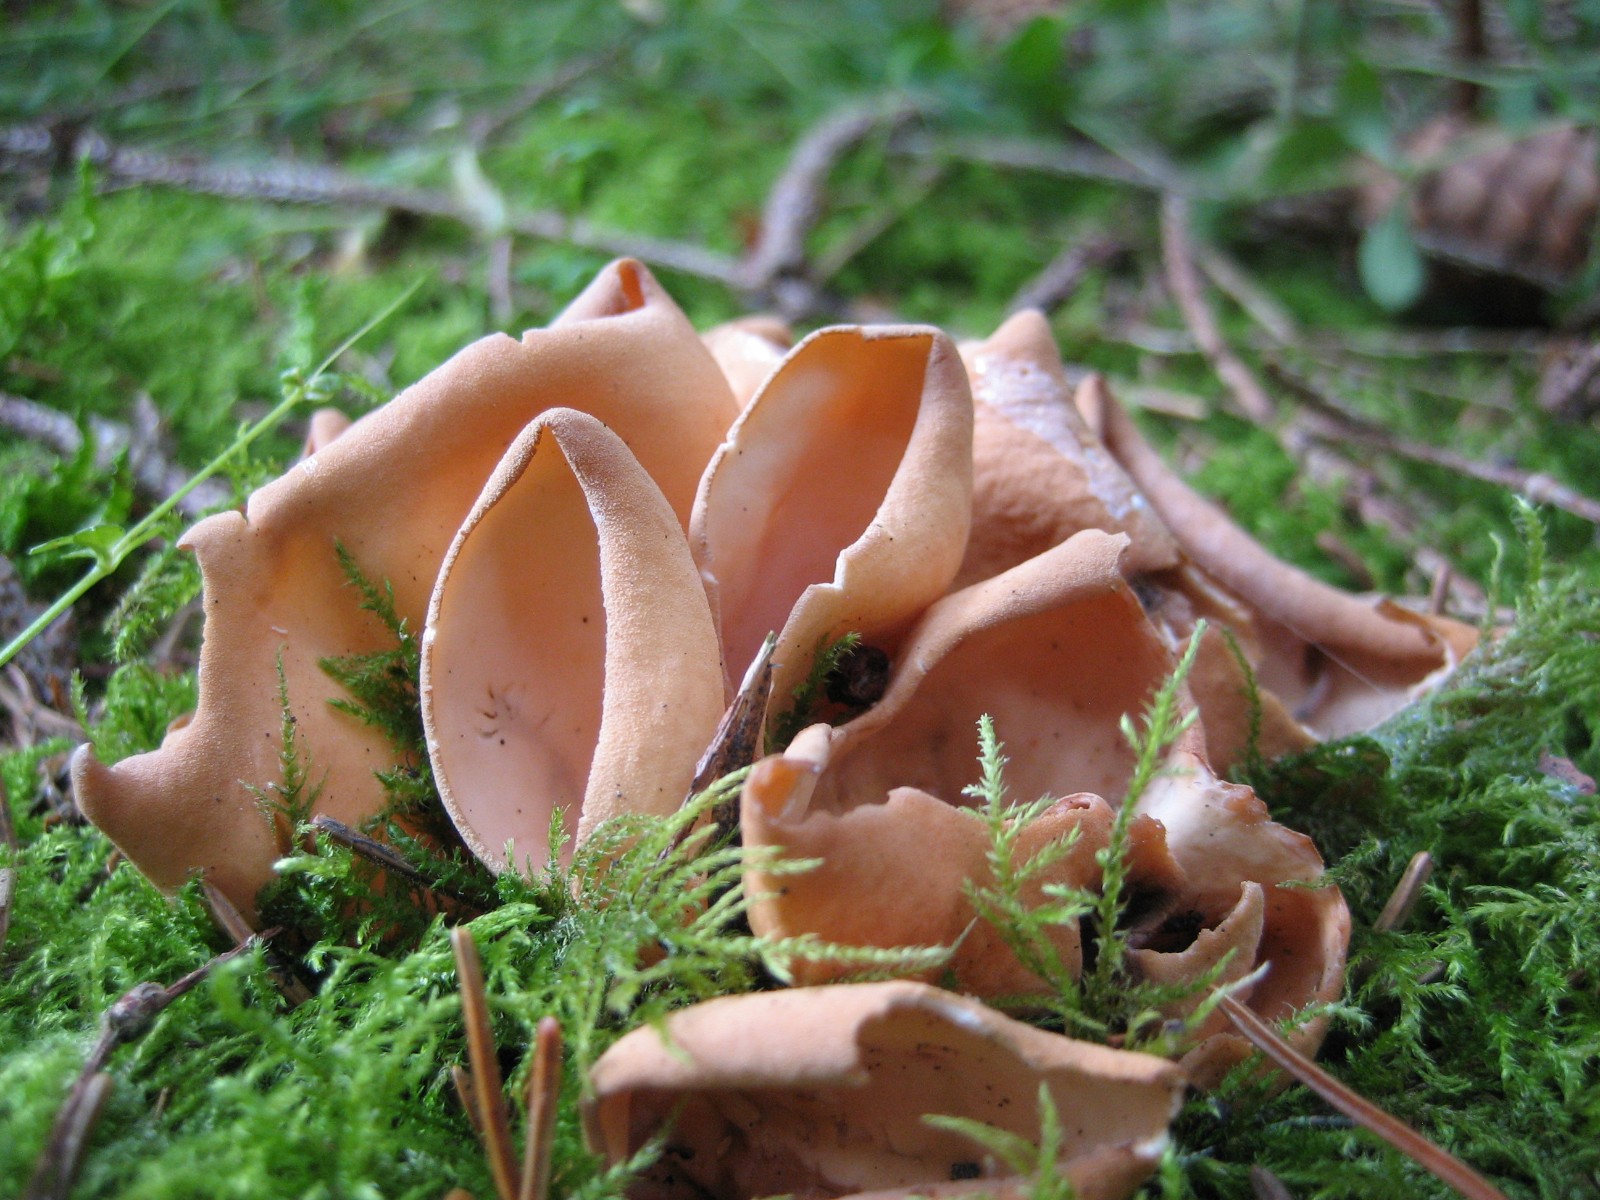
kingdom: Fungi
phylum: Ascomycota
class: Pezizomycetes
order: Pezizales
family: Otideaceae
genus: Otidea
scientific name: Otidea onotica
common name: æsel-ørebæger
